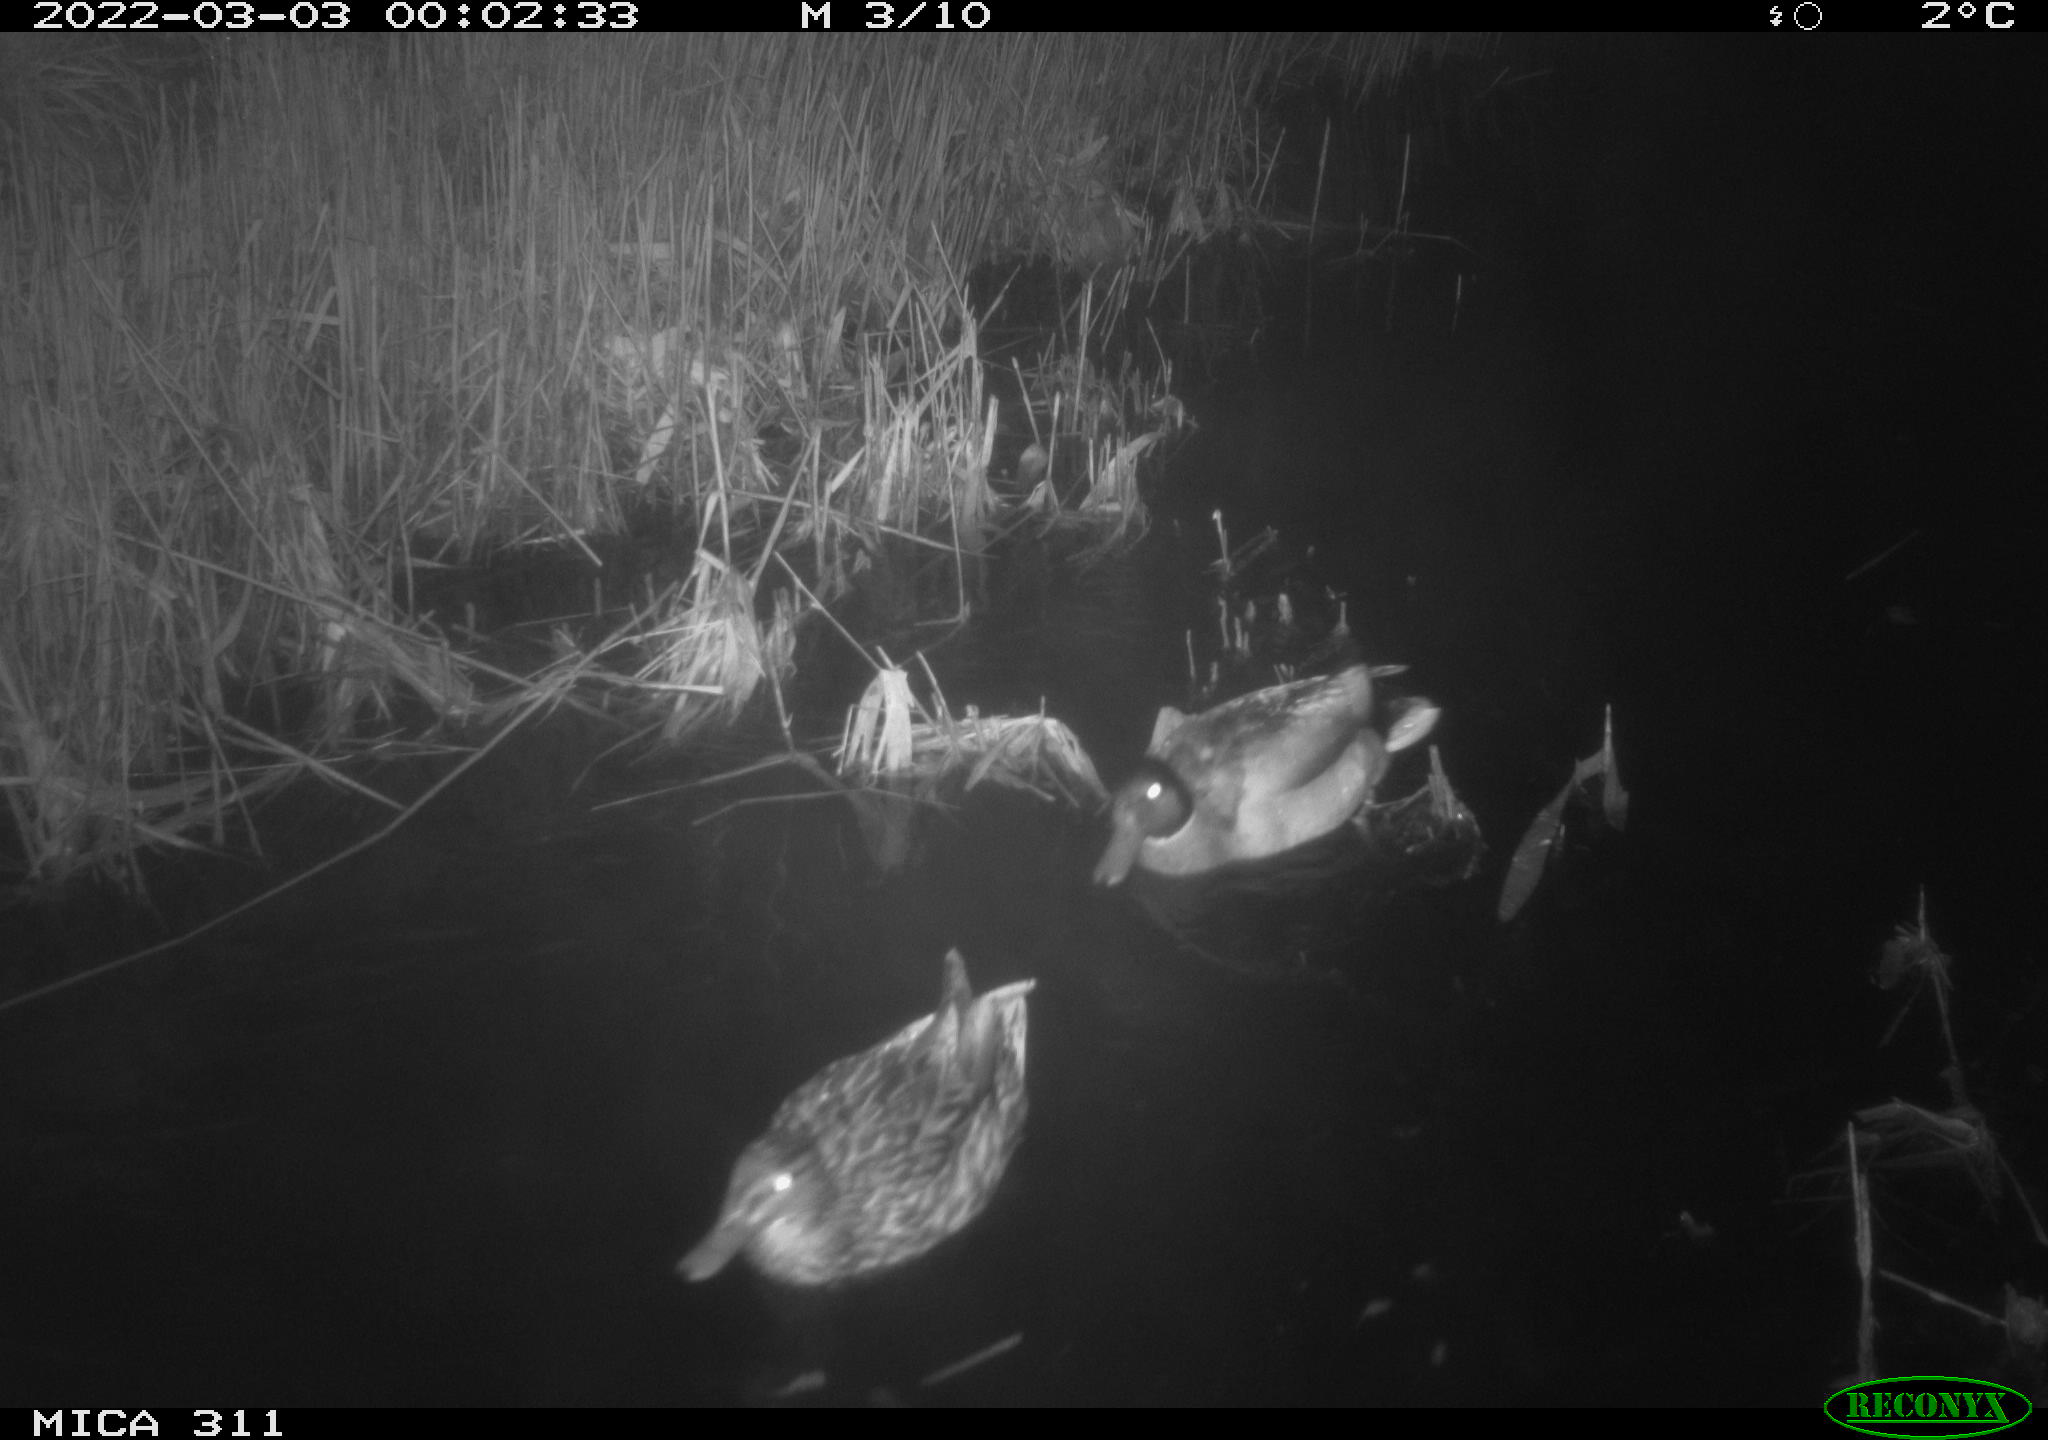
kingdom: Animalia
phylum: Chordata
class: Aves
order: Anseriformes
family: Anatidae
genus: Anas
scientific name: Anas platyrhynchos
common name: Mallard
